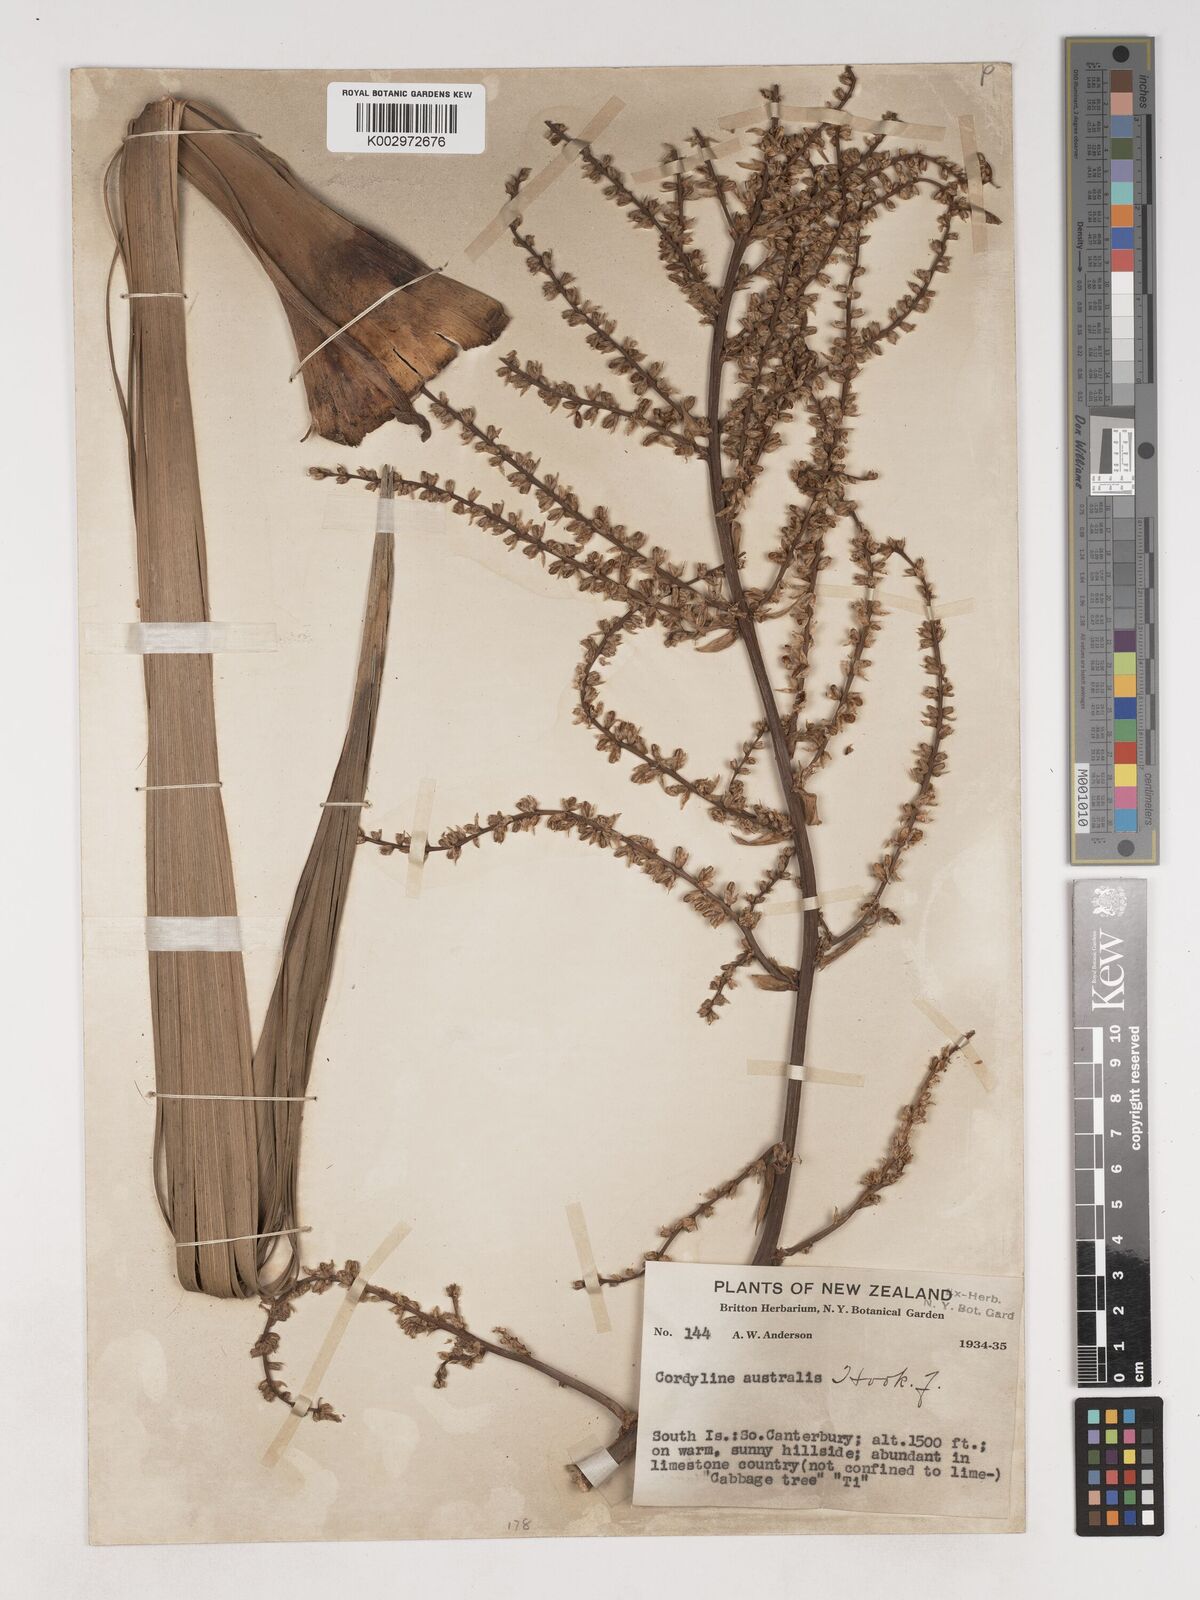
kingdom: Plantae
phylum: Tracheophyta
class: Liliopsida
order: Asparagales
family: Asparagaceae
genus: Cordyline
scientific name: Cordyline australis
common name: Cabbage-palm
